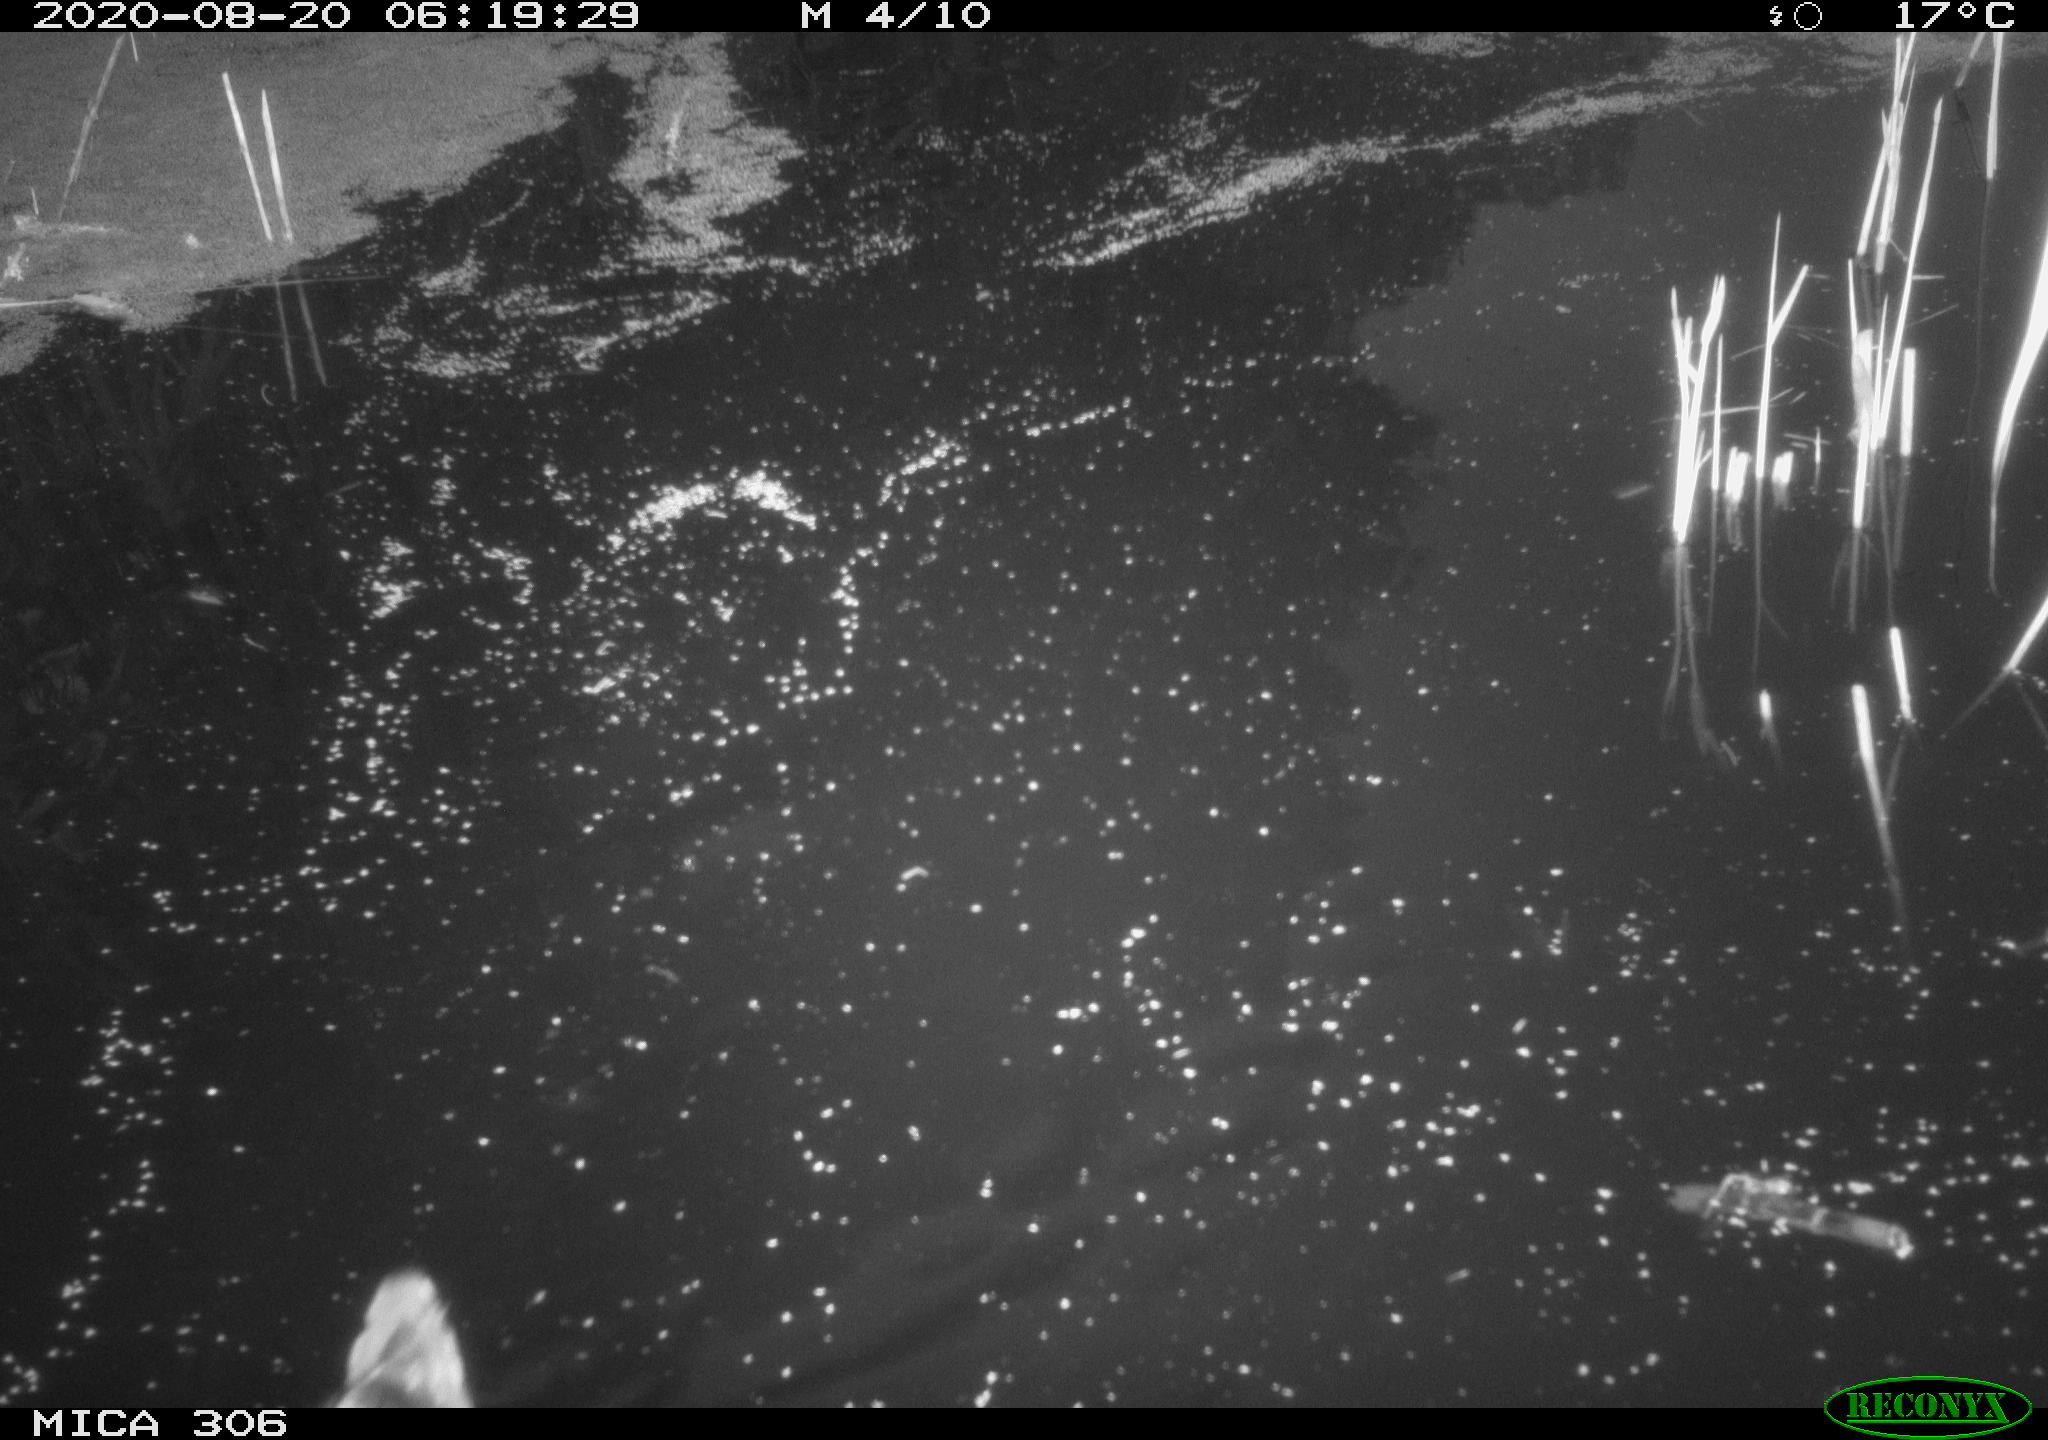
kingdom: Animalia
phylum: Chordata
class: Aves
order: Gruiformes
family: Rallidae
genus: Fulica
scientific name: Fulica atra
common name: Eurasian coot
